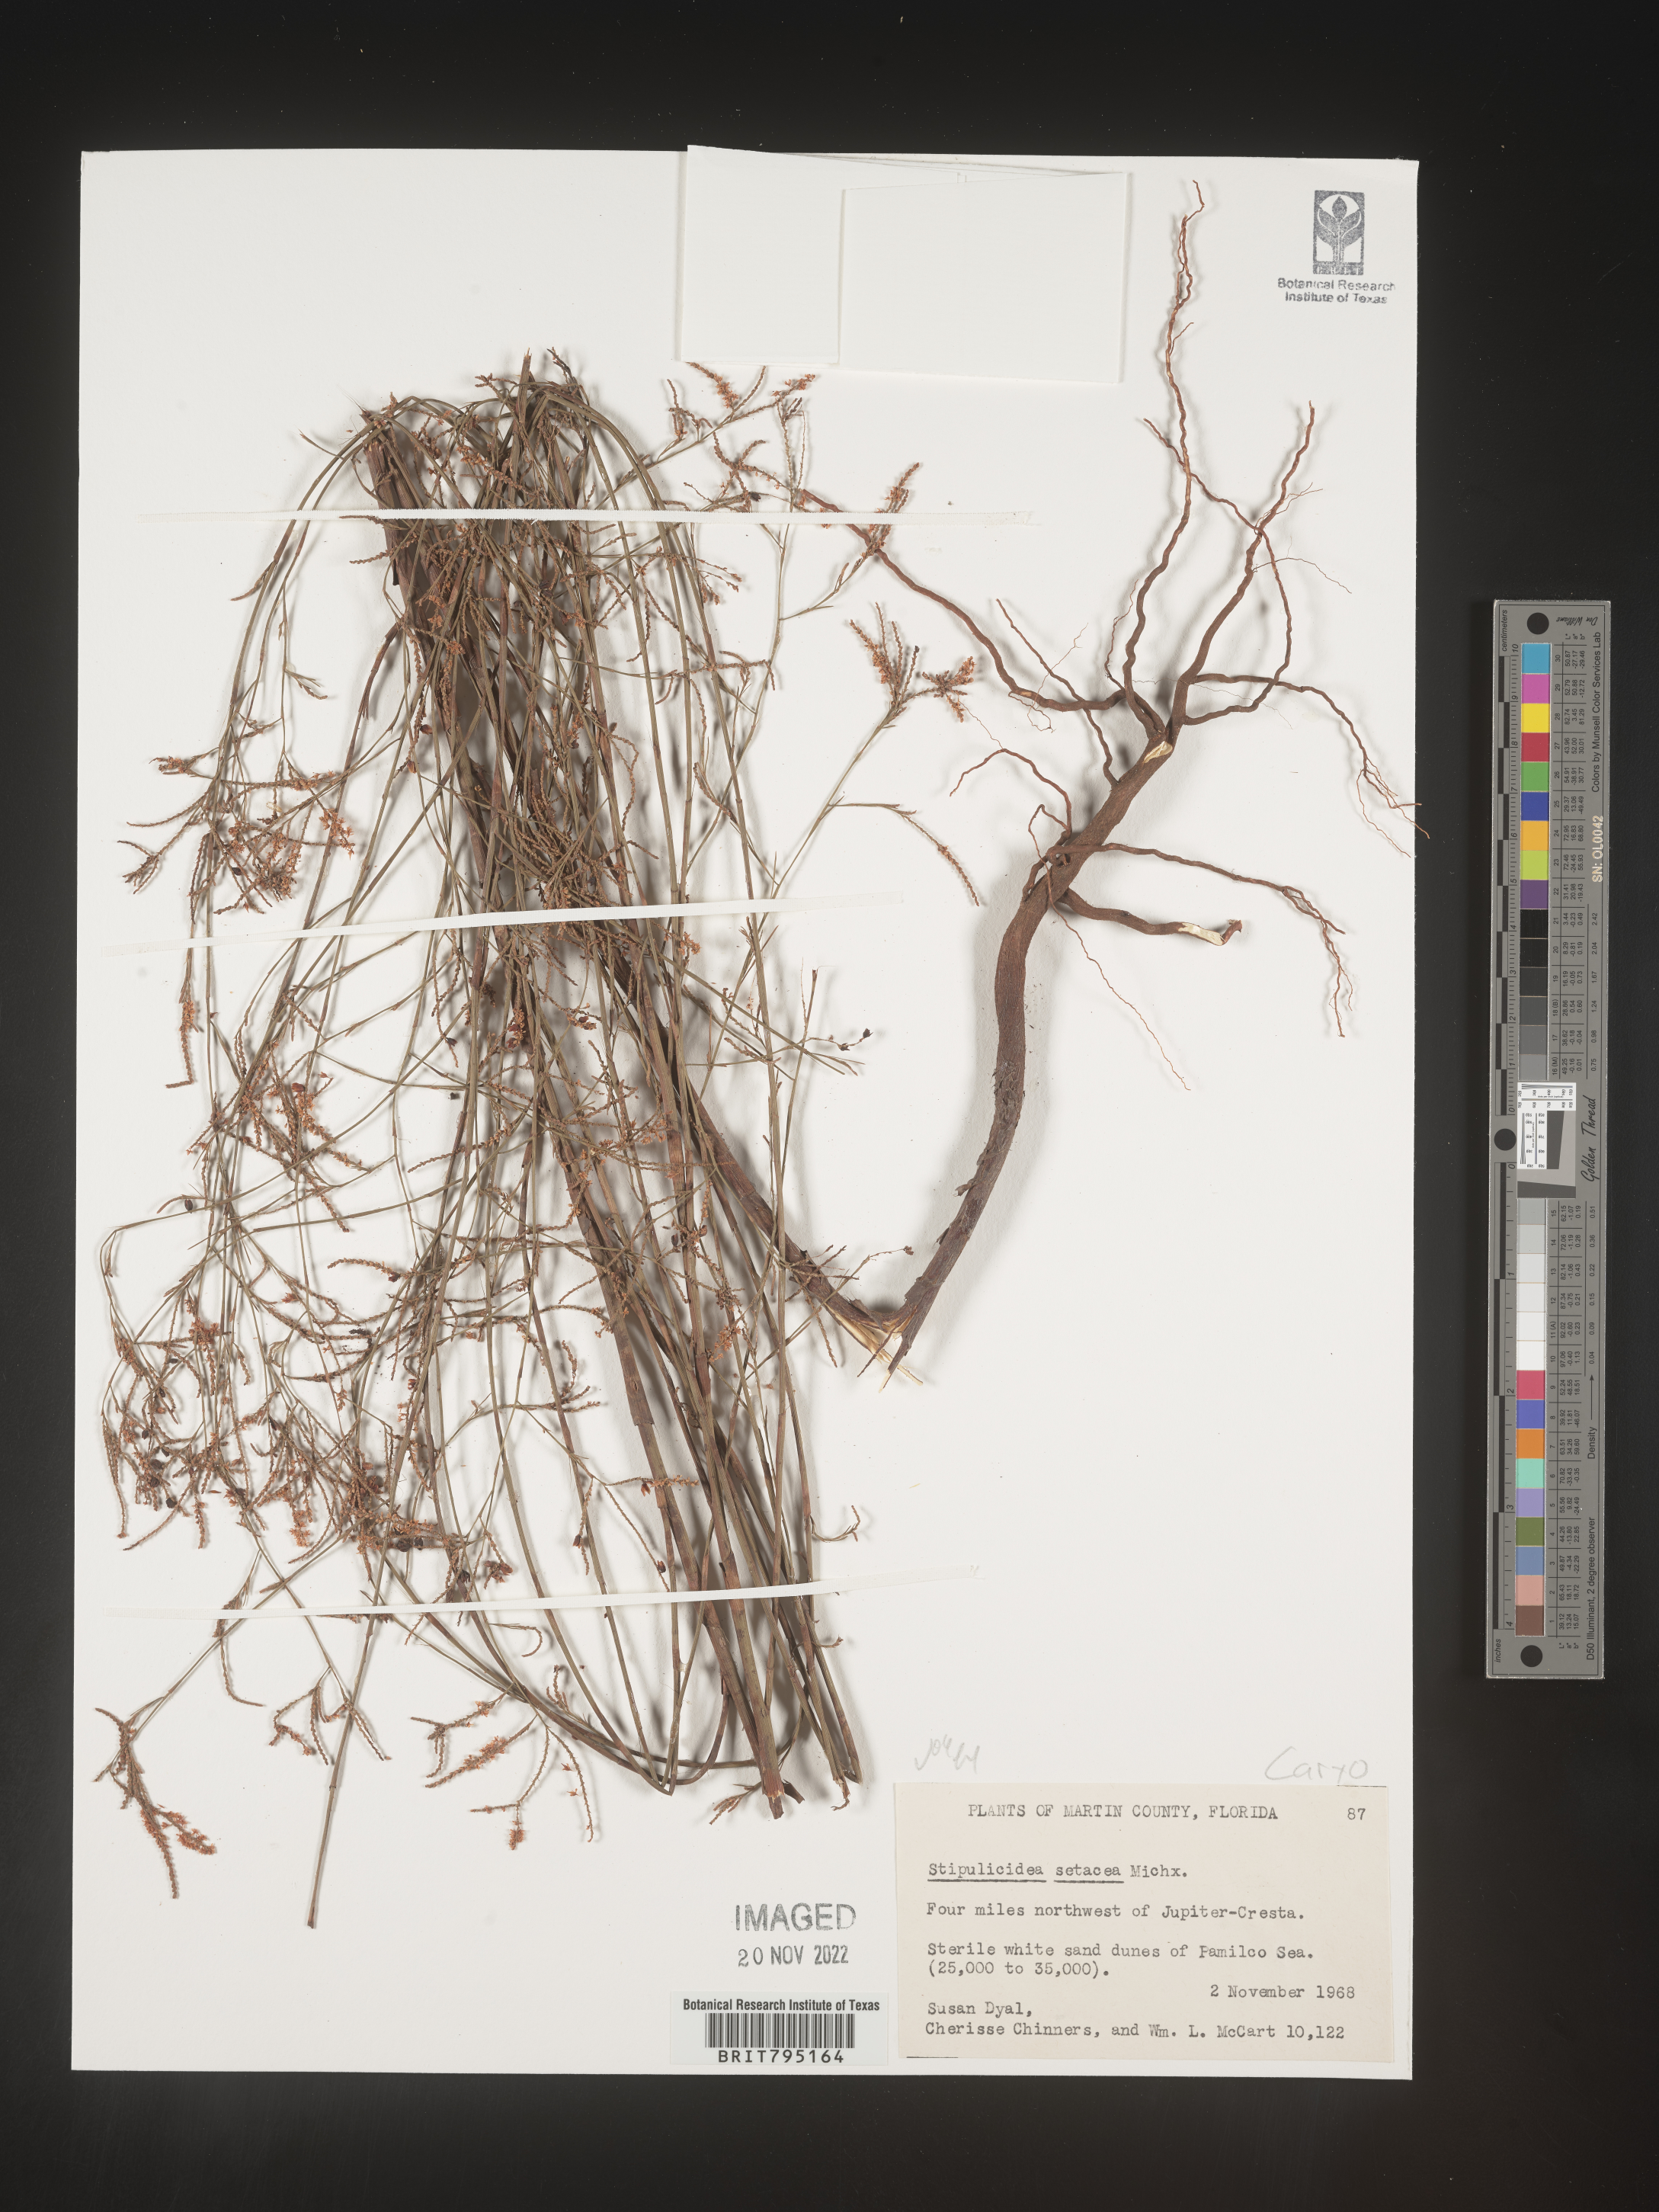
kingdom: Plantae
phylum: Tracheophyta
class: Magnoliopsida
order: Caryophyllales
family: Caryophyllaceae
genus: Stipulicida
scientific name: Stipulicida
